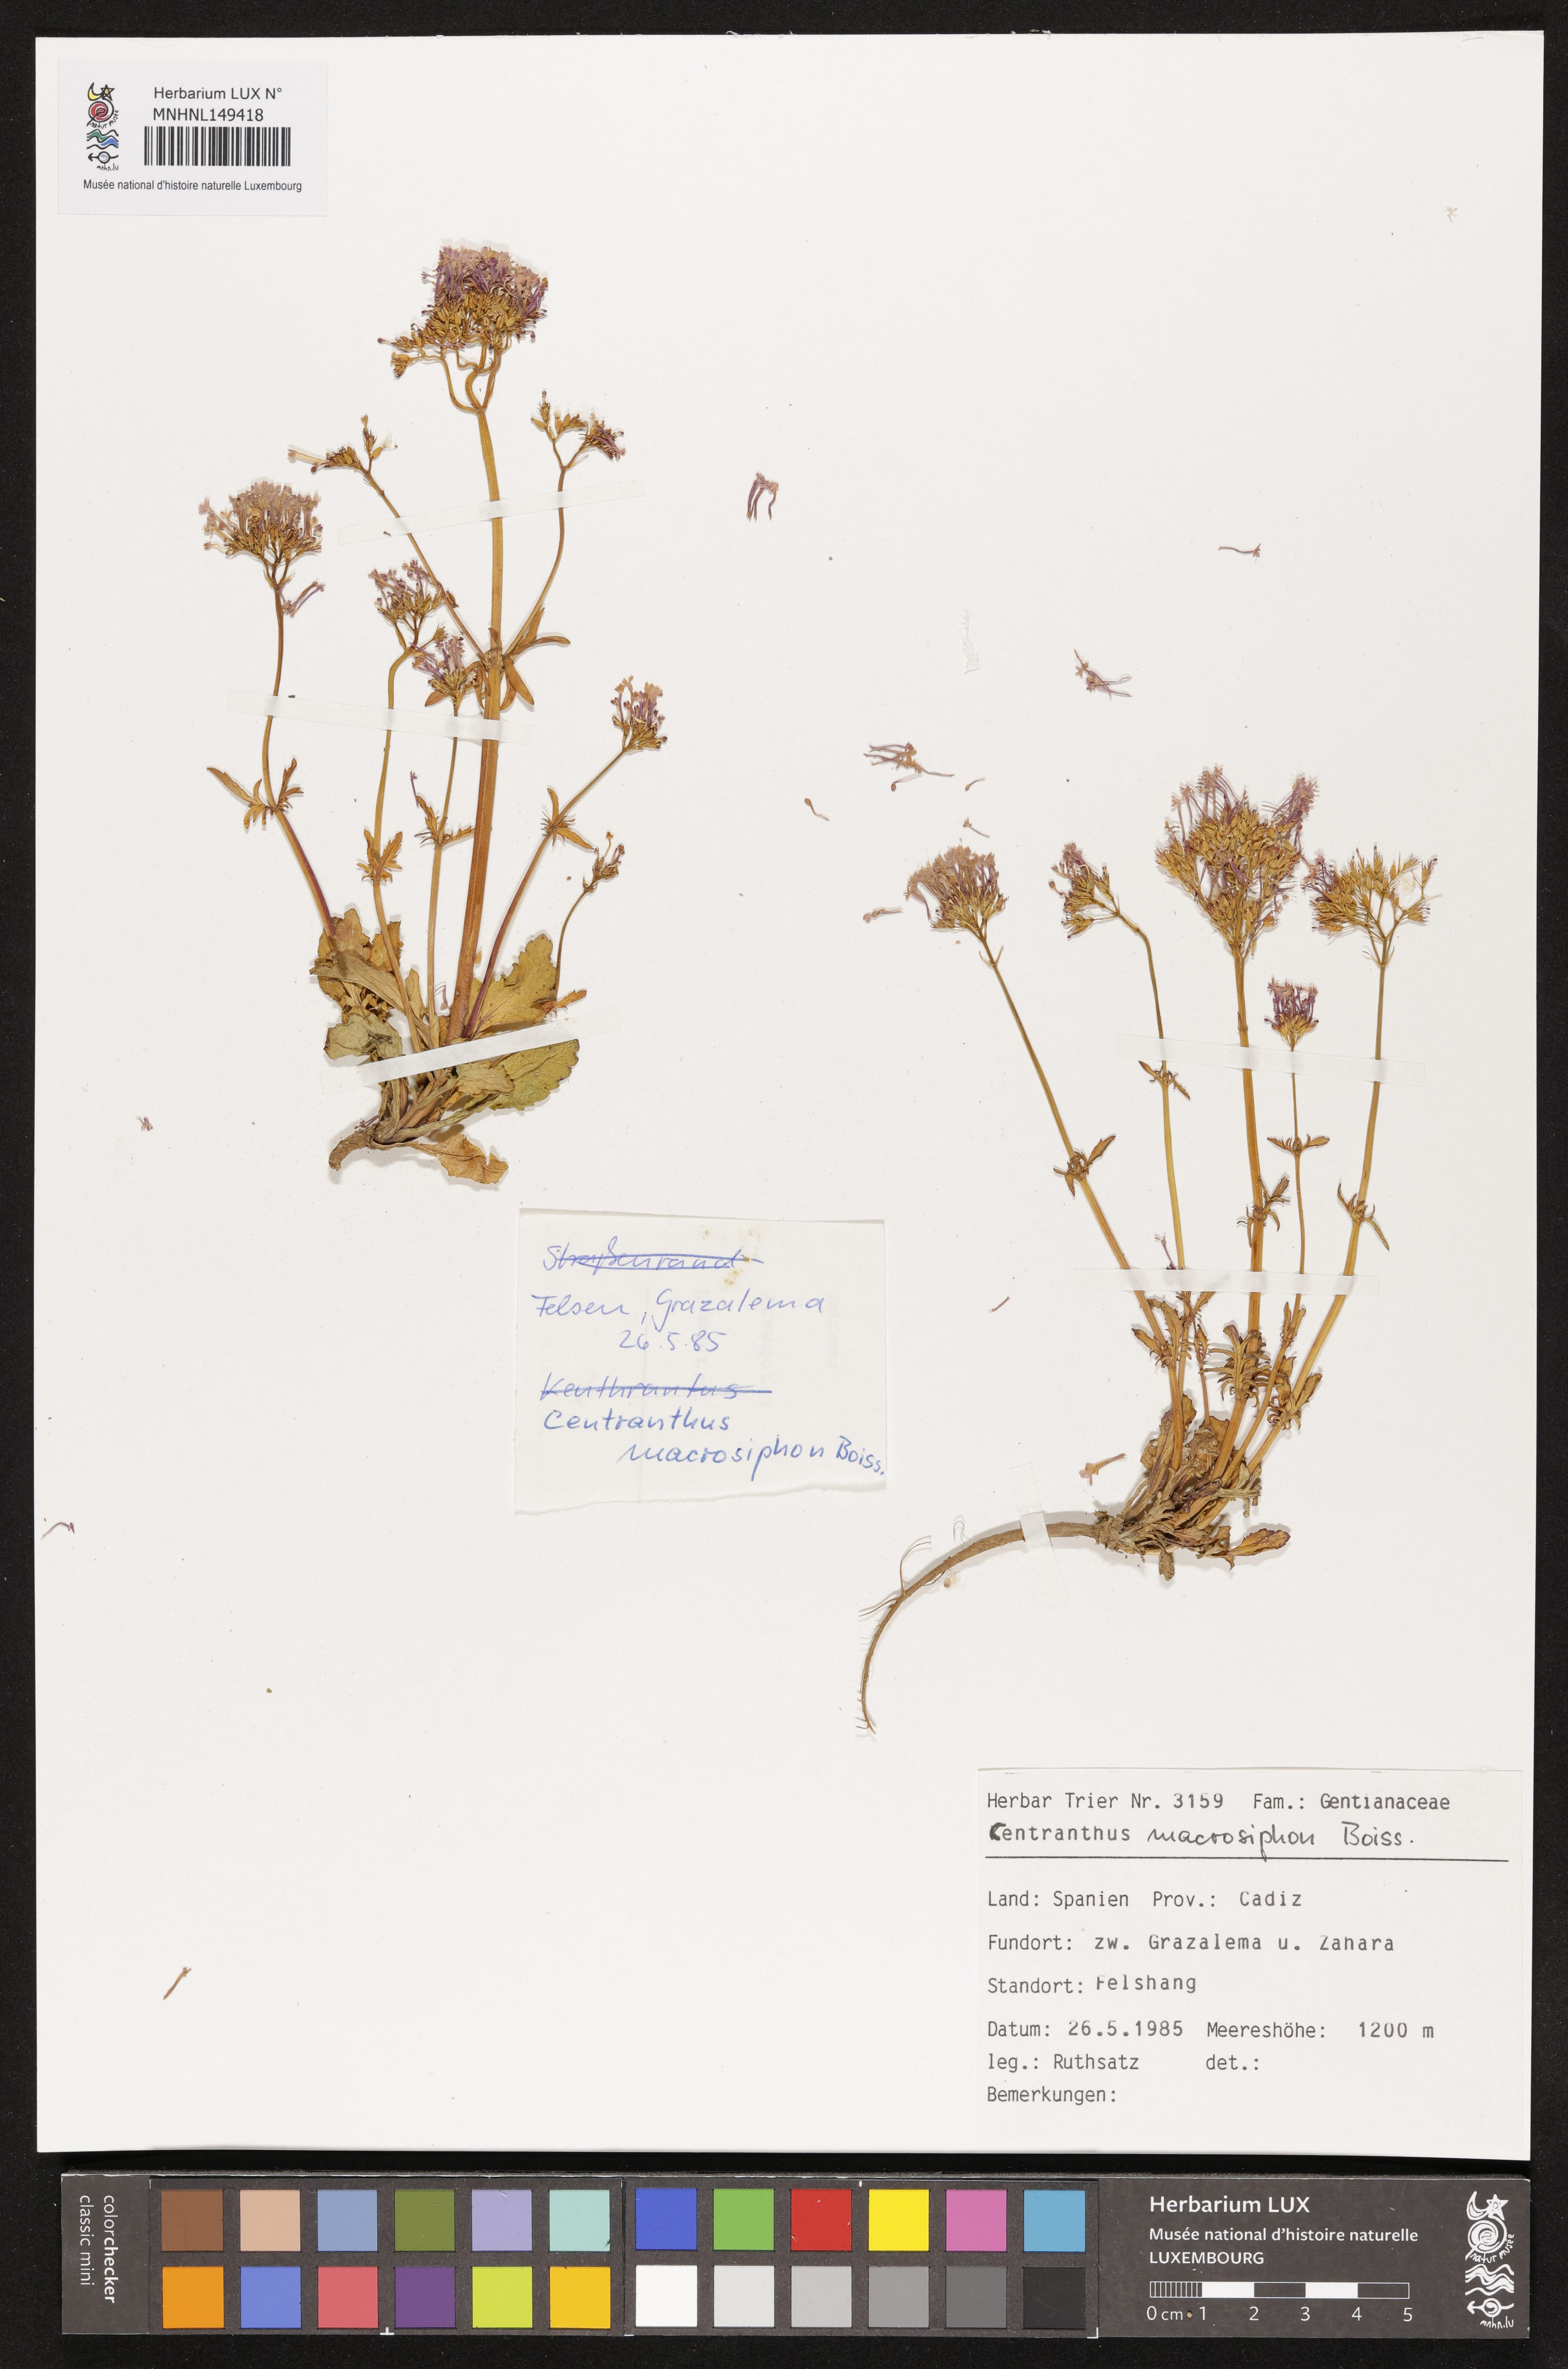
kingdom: Plantae
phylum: Tracheophyta
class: Magnoliopsida
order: Dipsacales
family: Caprifoliaceae
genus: Centranthus
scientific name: Centranthus macrosiphon
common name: Spanish-valerian
